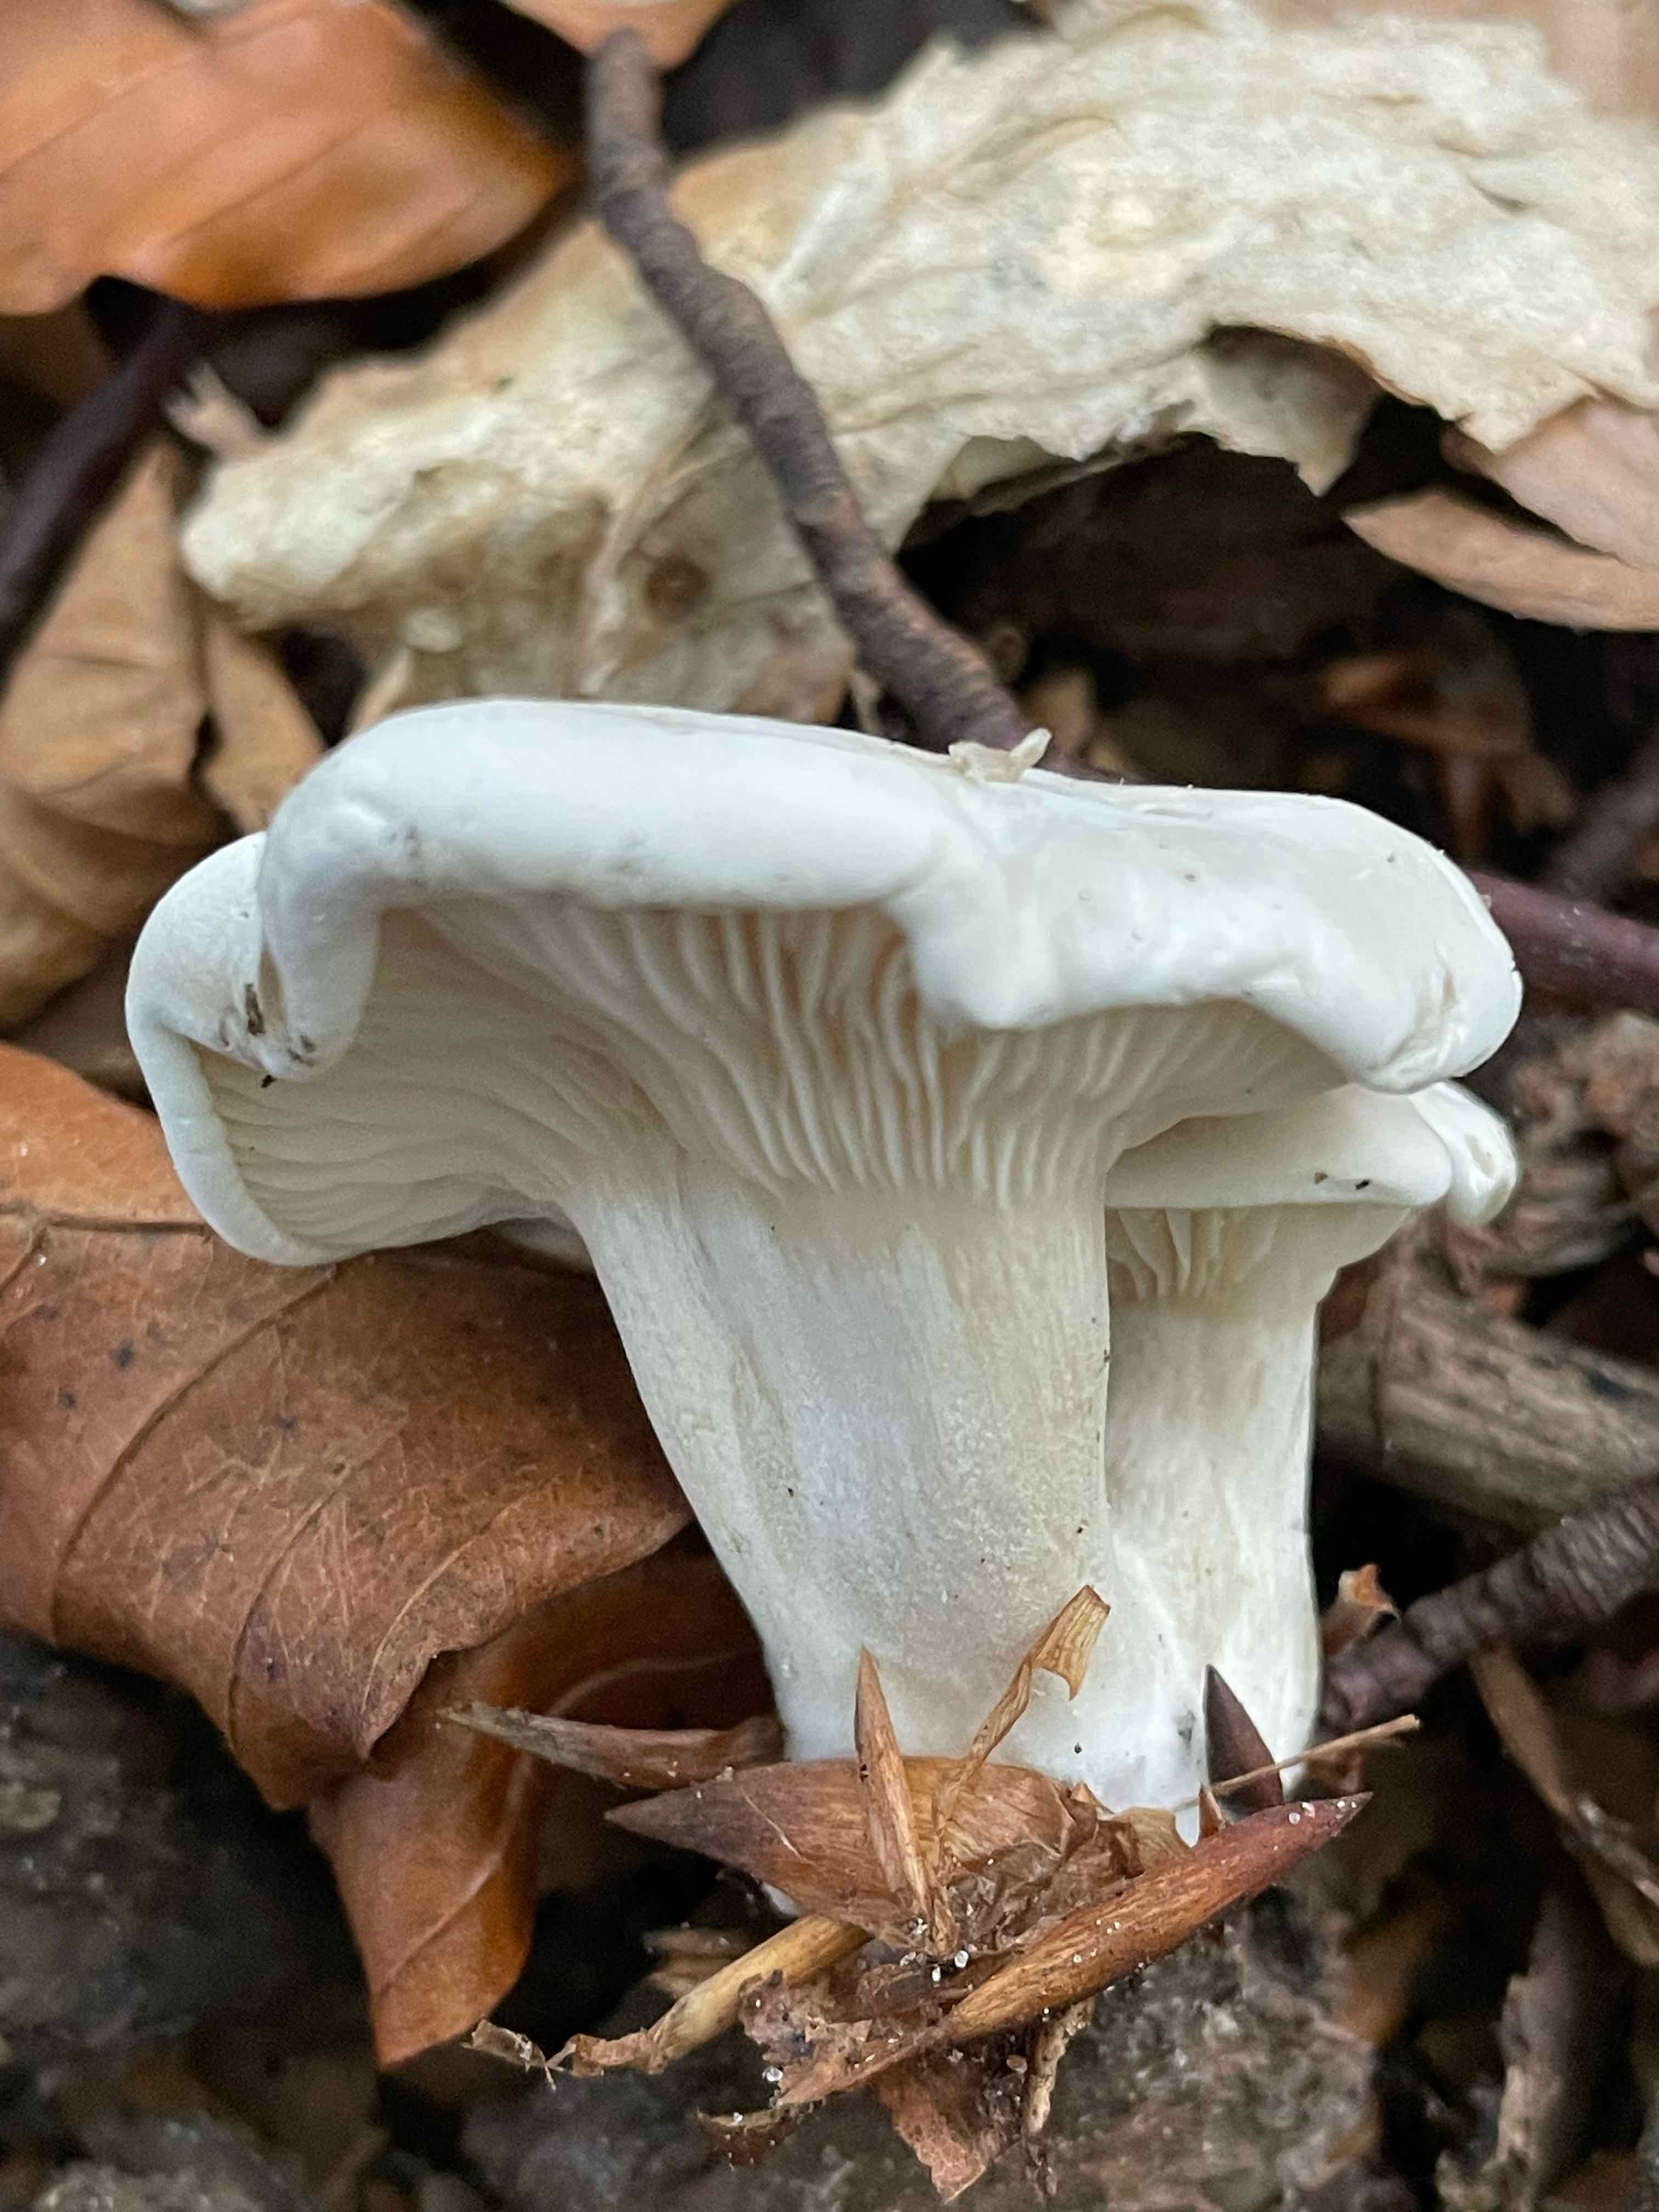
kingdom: Fungi
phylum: Basidiomycota
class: Agaricomycetes
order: Agaricales
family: Entolomataceae
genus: Clitopilus
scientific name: Clitopilus prunulus
